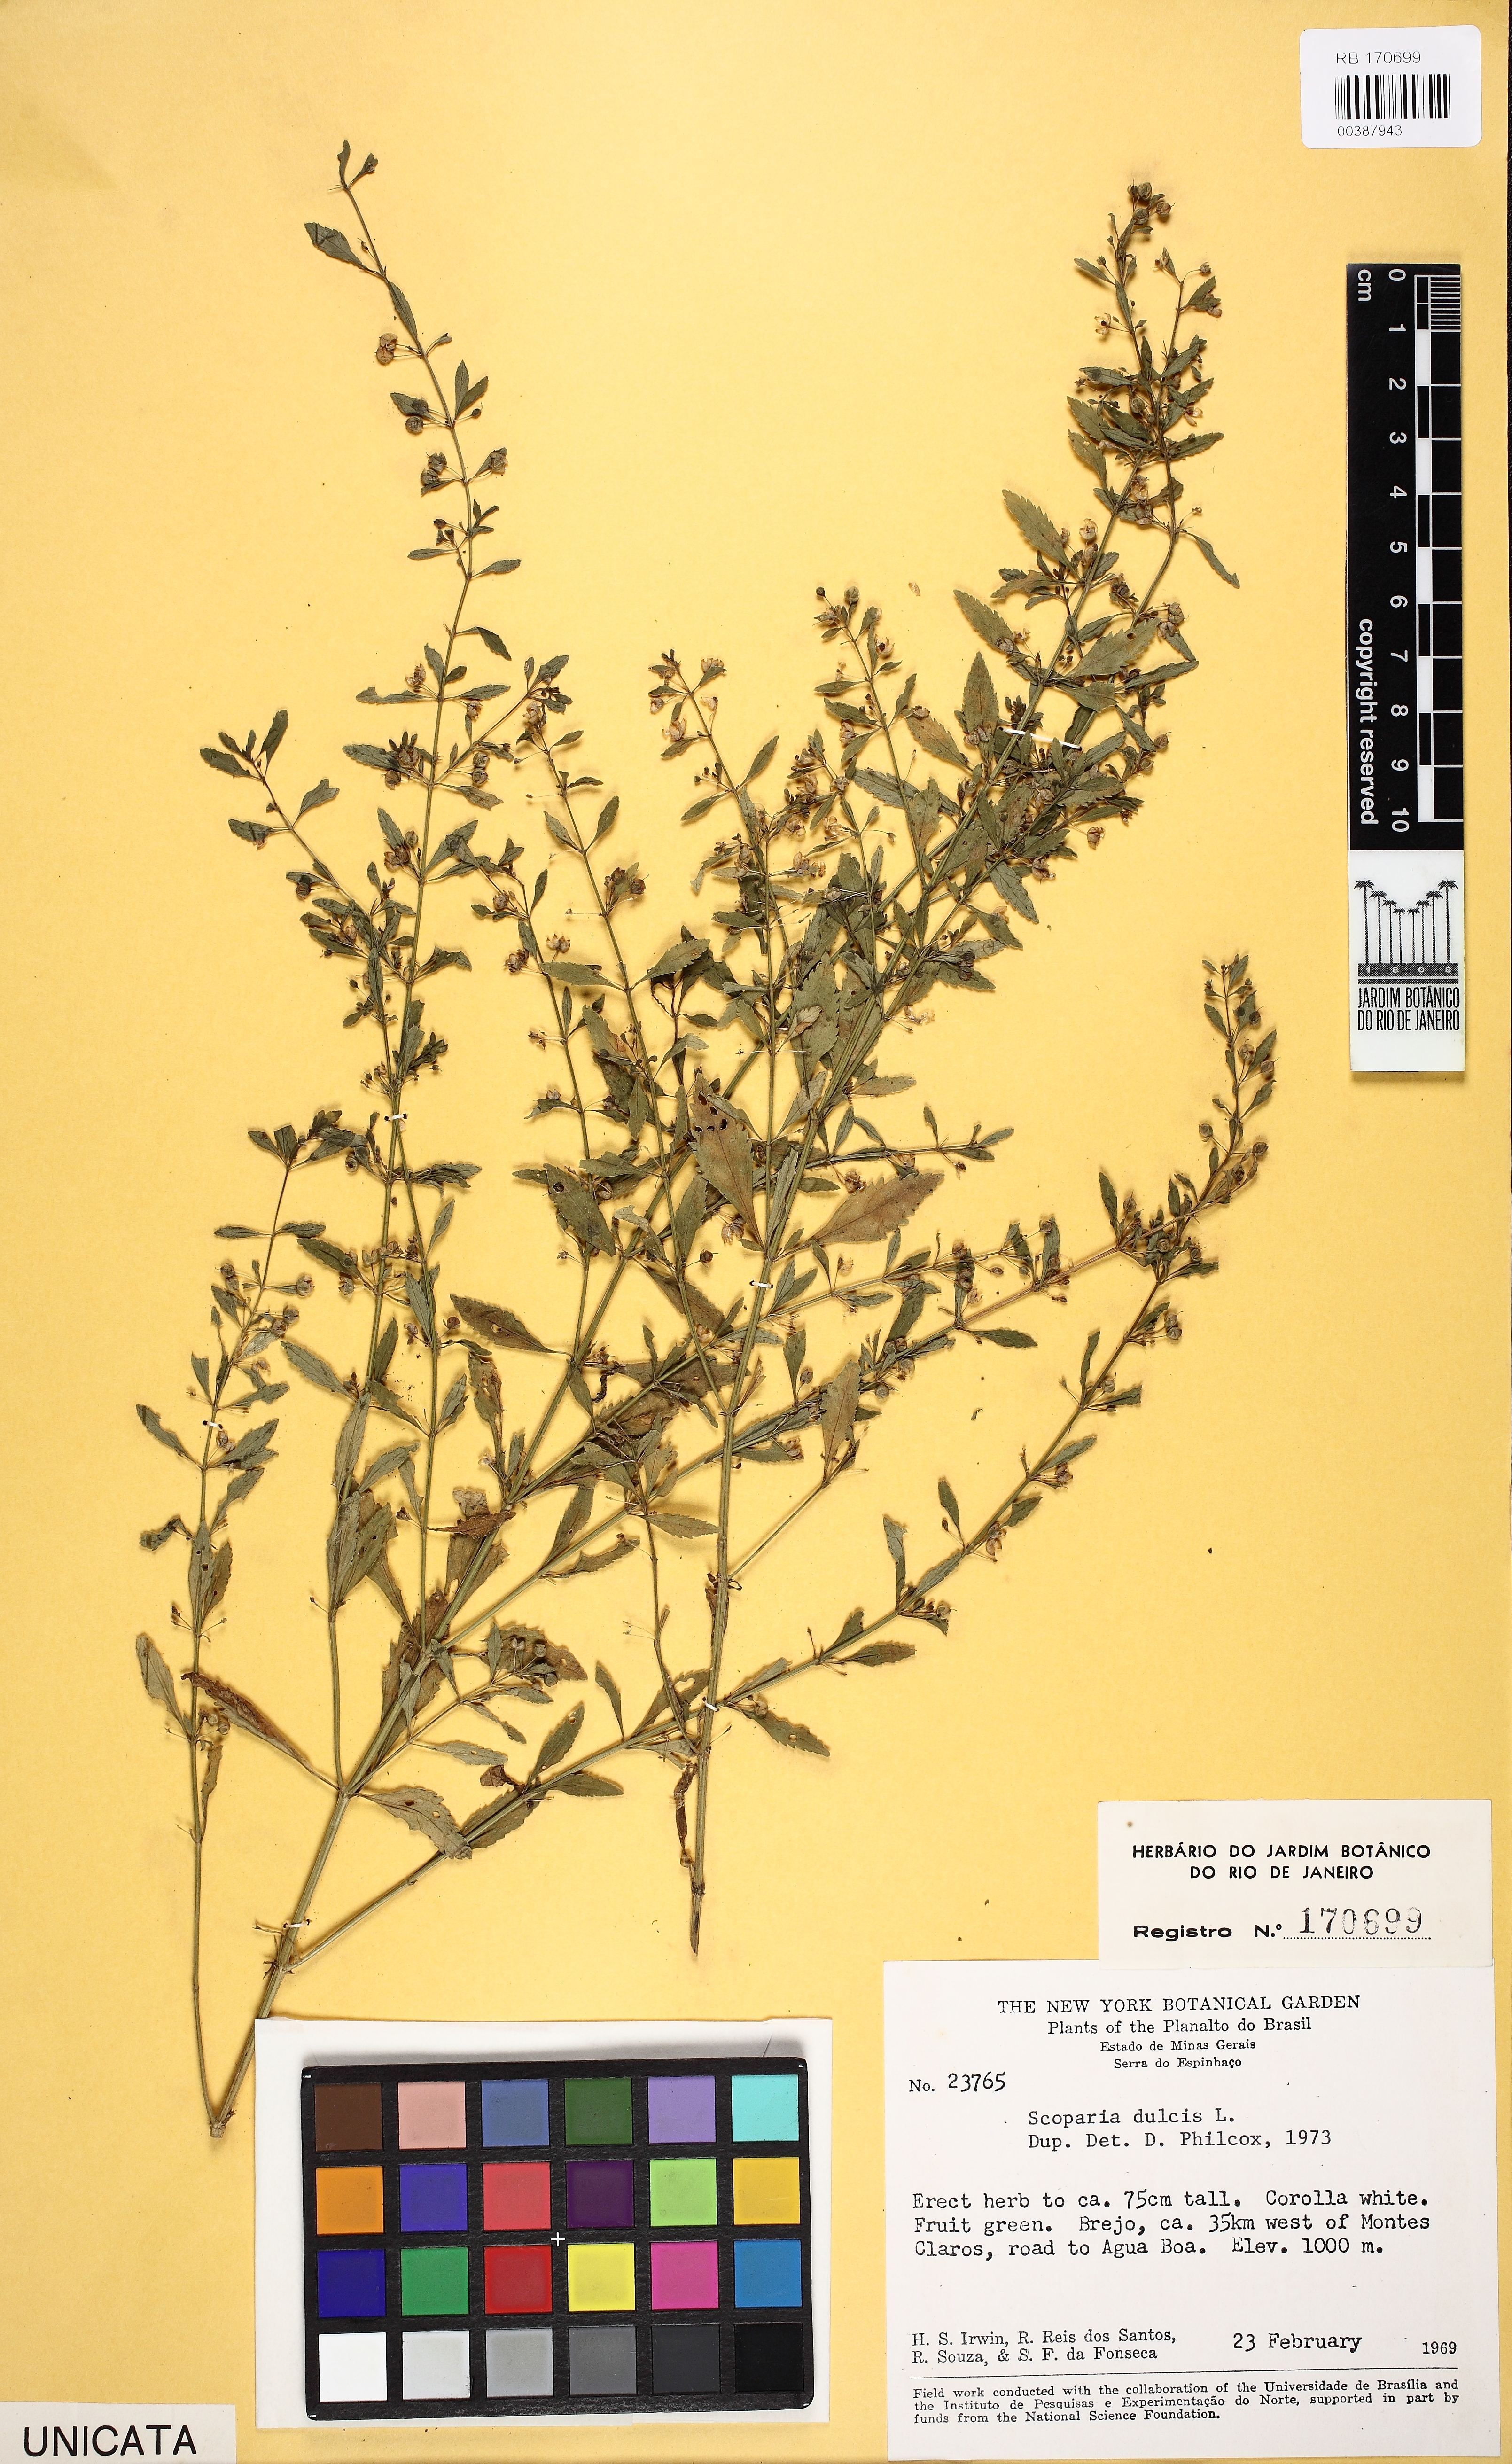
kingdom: Plantae
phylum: Tracheophyta
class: Magnoliopsida
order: Lamiales
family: Plantaginaceae
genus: Scoparia
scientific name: Scoparia dulcis
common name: Scoparia-weed
